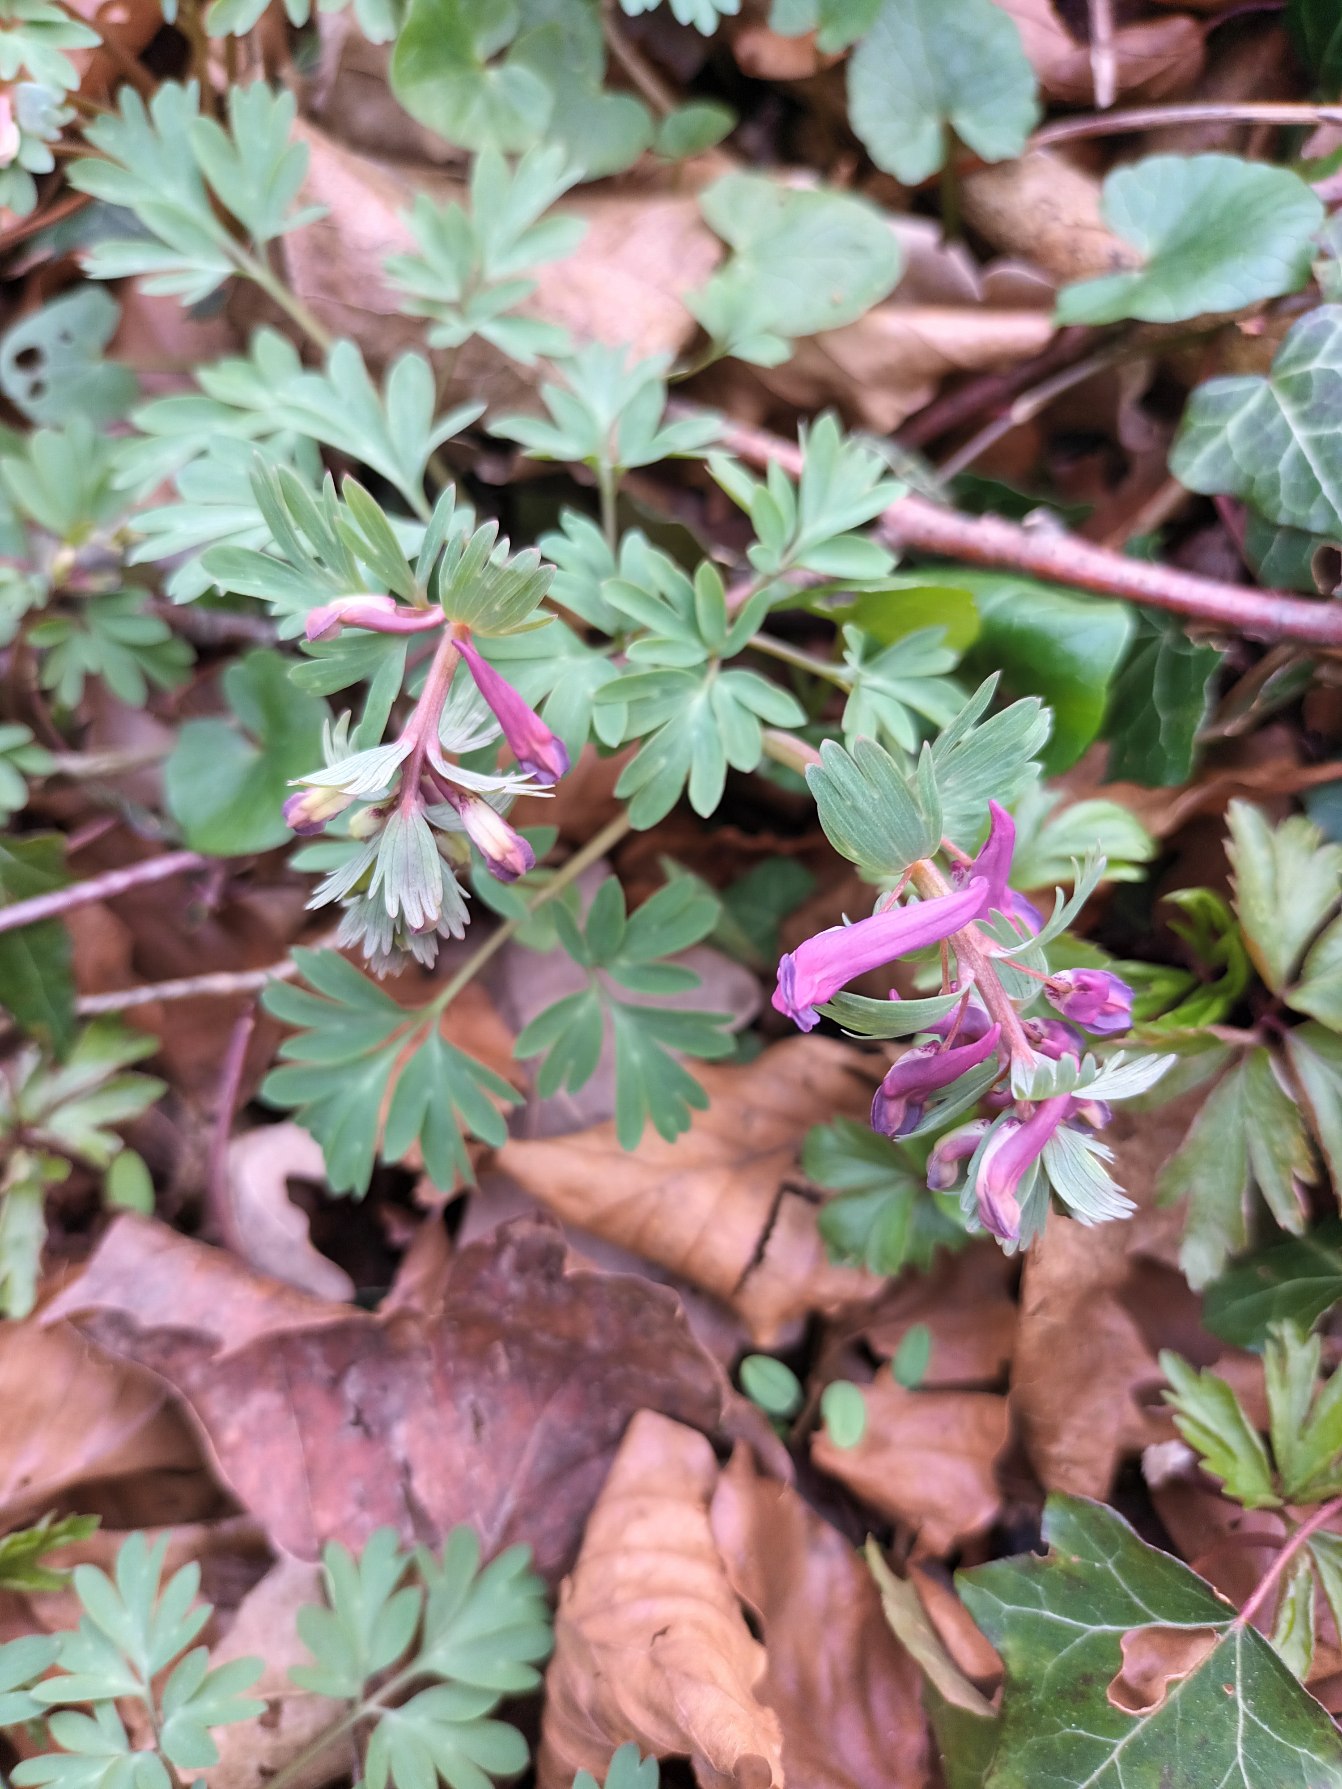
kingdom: Plantae
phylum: Tracheophyta
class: Magnoliopsida
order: Ranunculales
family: Papaveraceae
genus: Corydalis
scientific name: Corydalis solida
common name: Langstilket lærkespore
